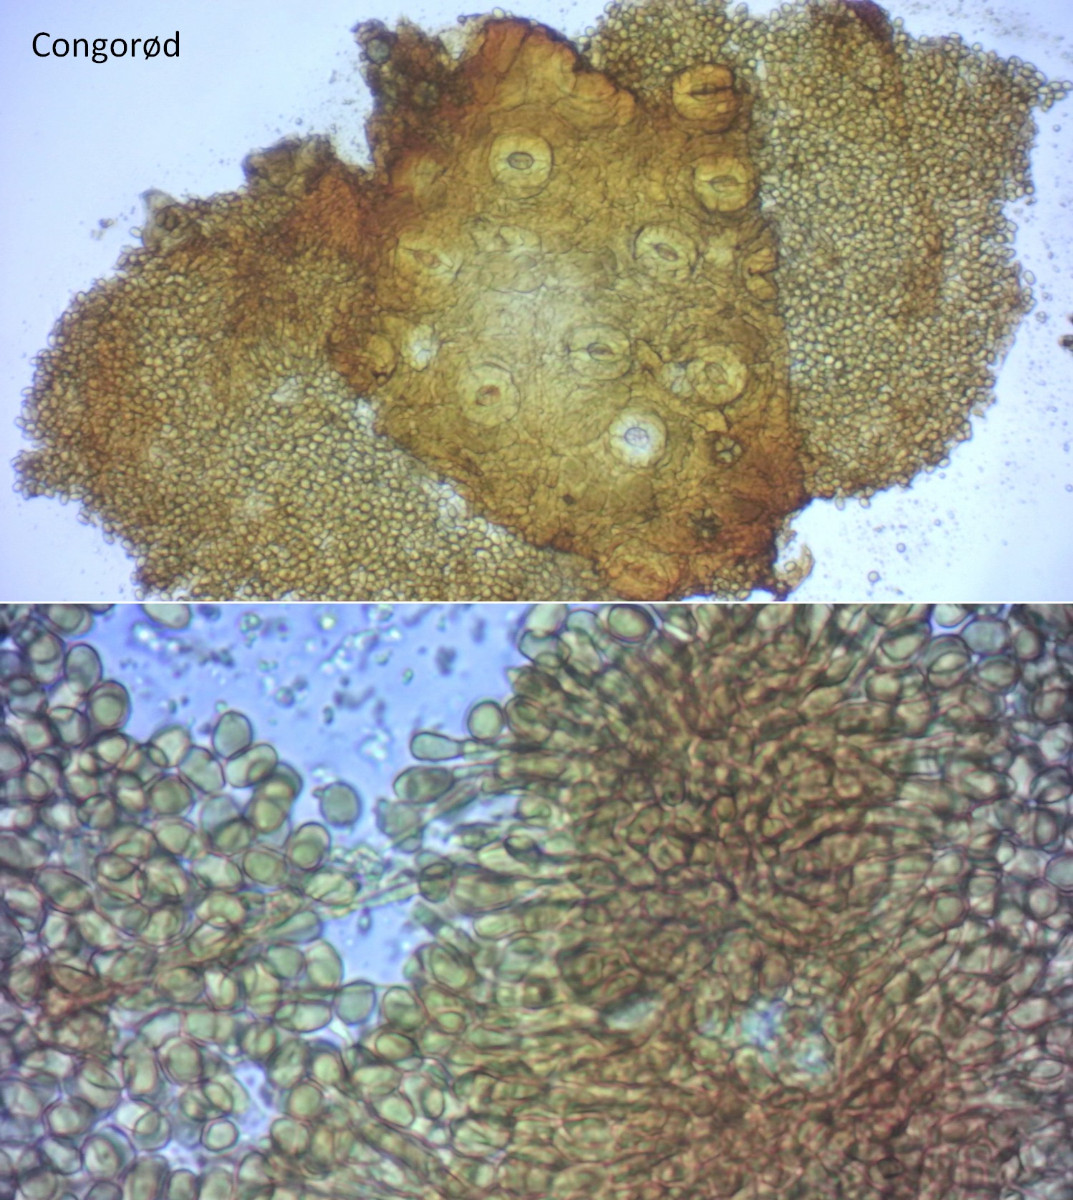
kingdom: Fungi
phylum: Ascomycota
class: Leotiomycetes
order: Helotiales
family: Cenangiaceae
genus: Trochila
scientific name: Trochila craterium
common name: vedbend-lågskive
